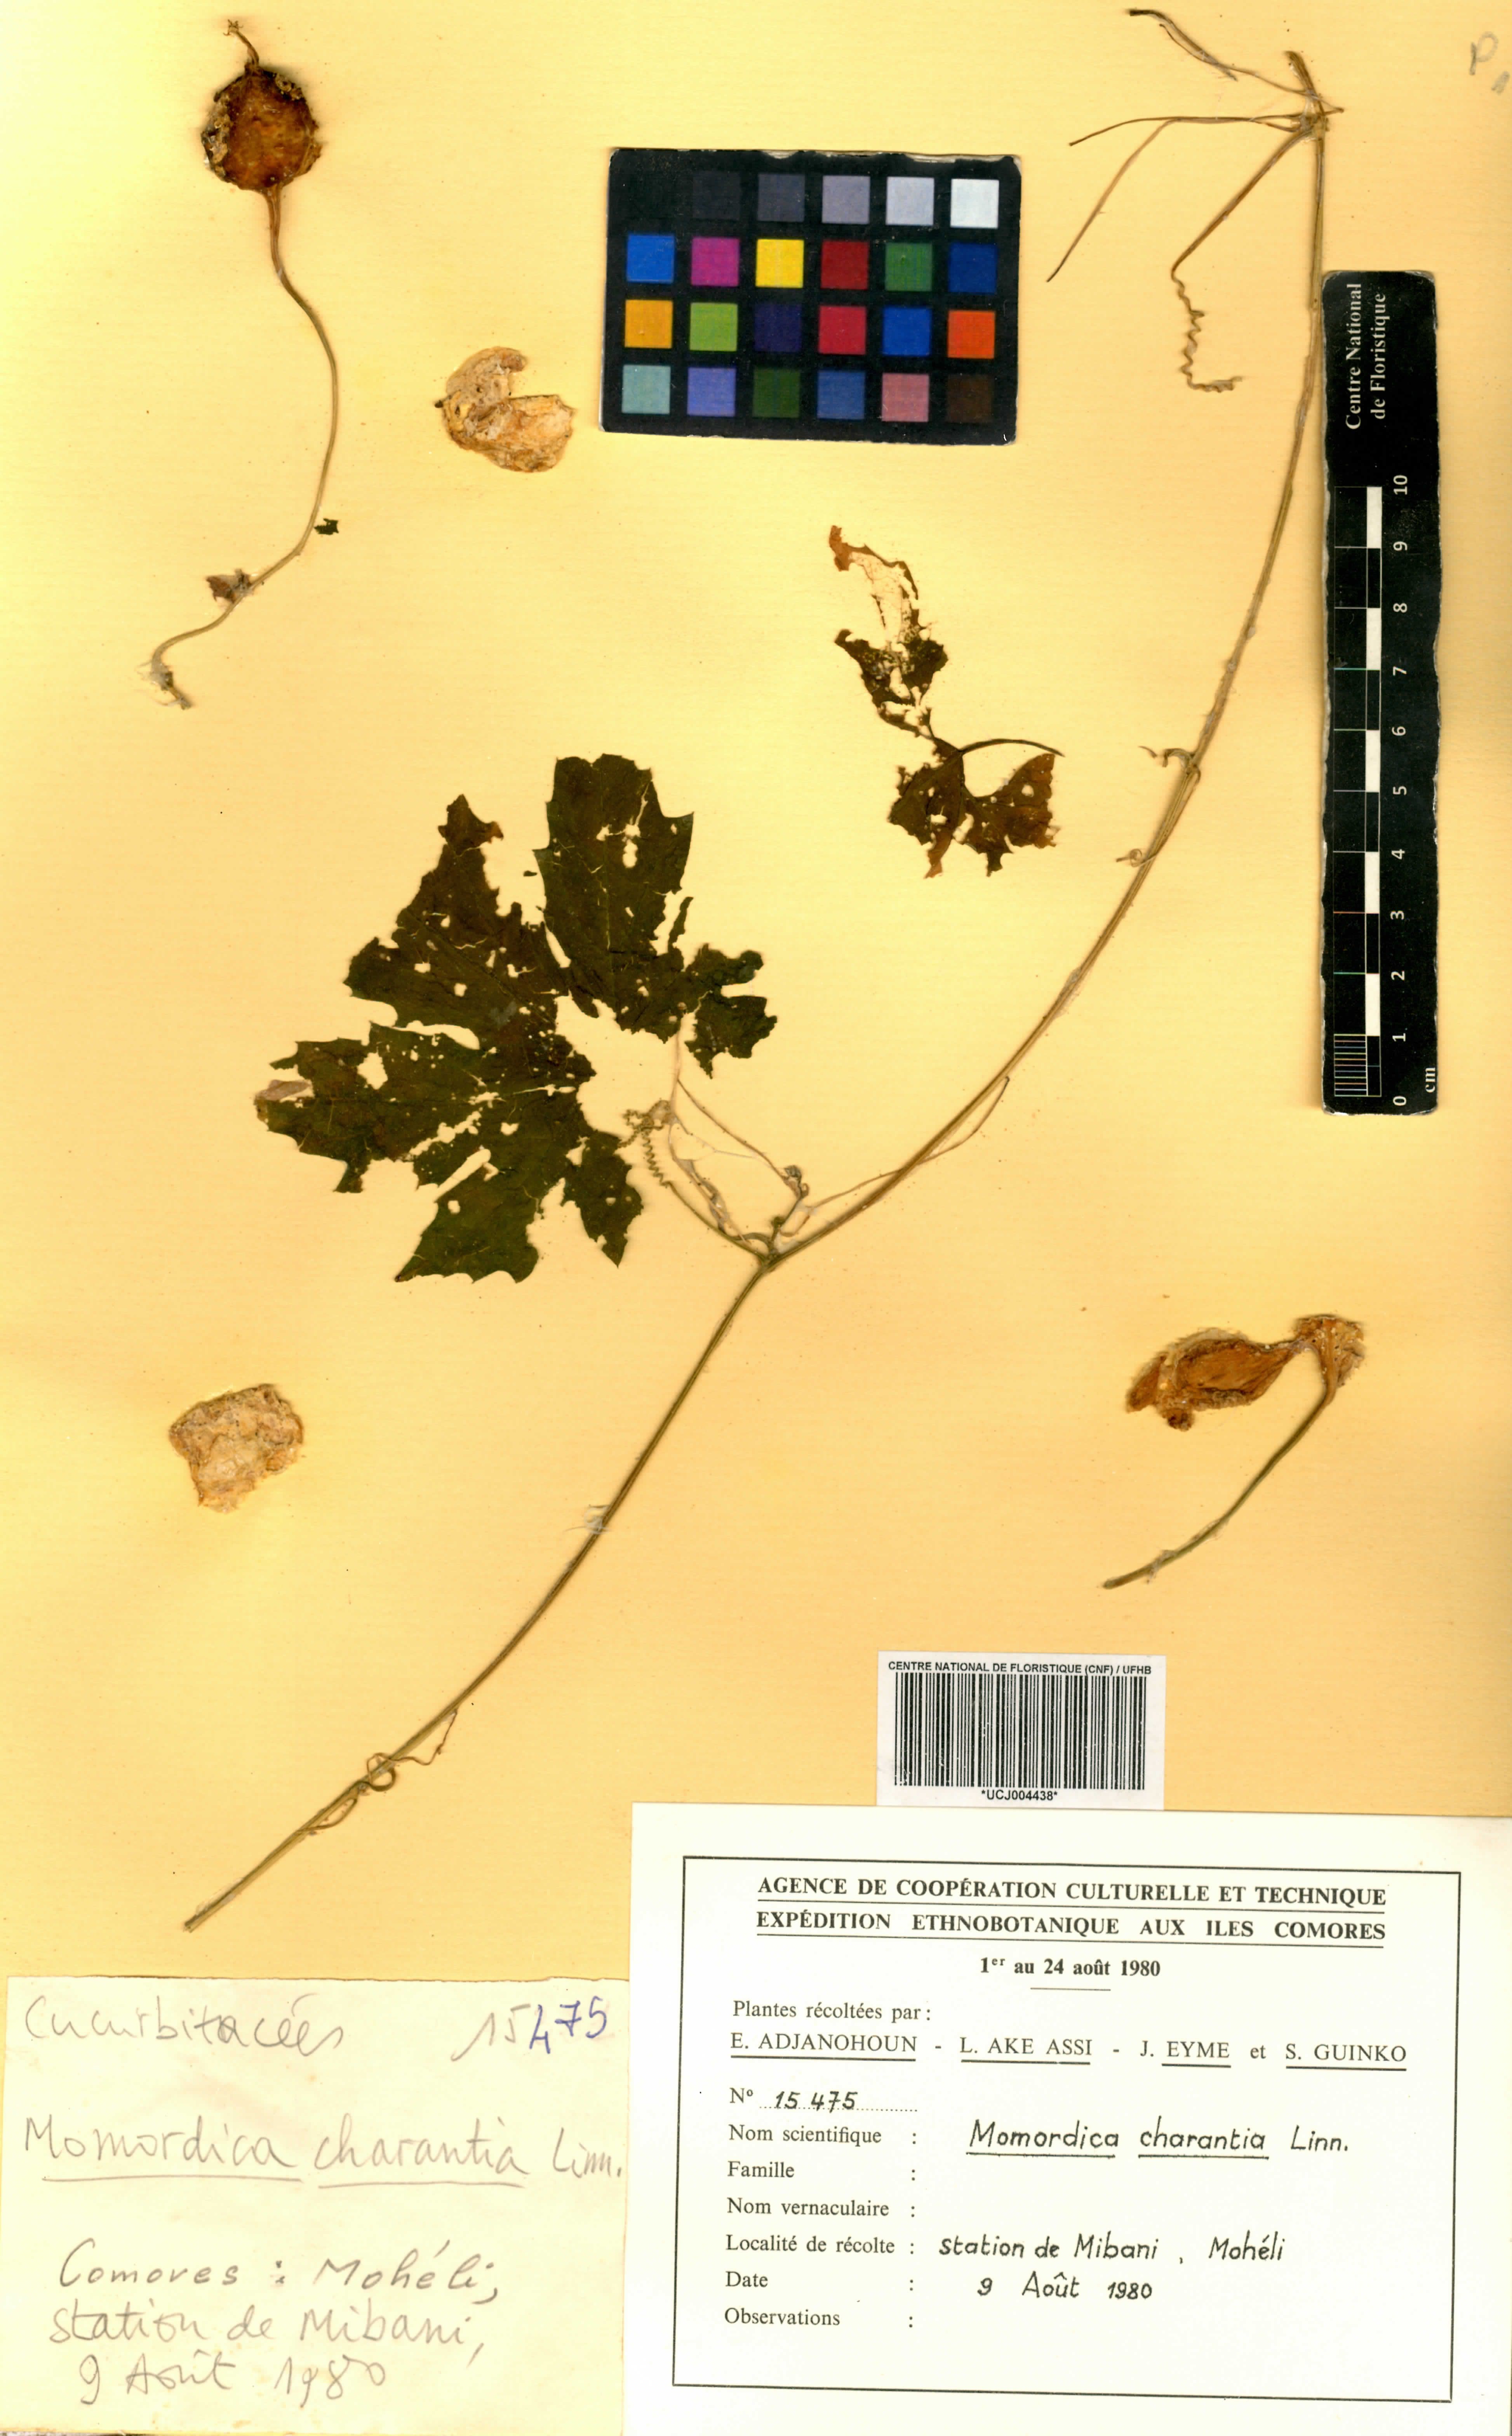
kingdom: Plantae
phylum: Tracheophyta
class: Magnoliopsida
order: Cucurbitales
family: Cucurbitaceae
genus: Momordica
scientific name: Momordica charantia
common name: Balsampear
